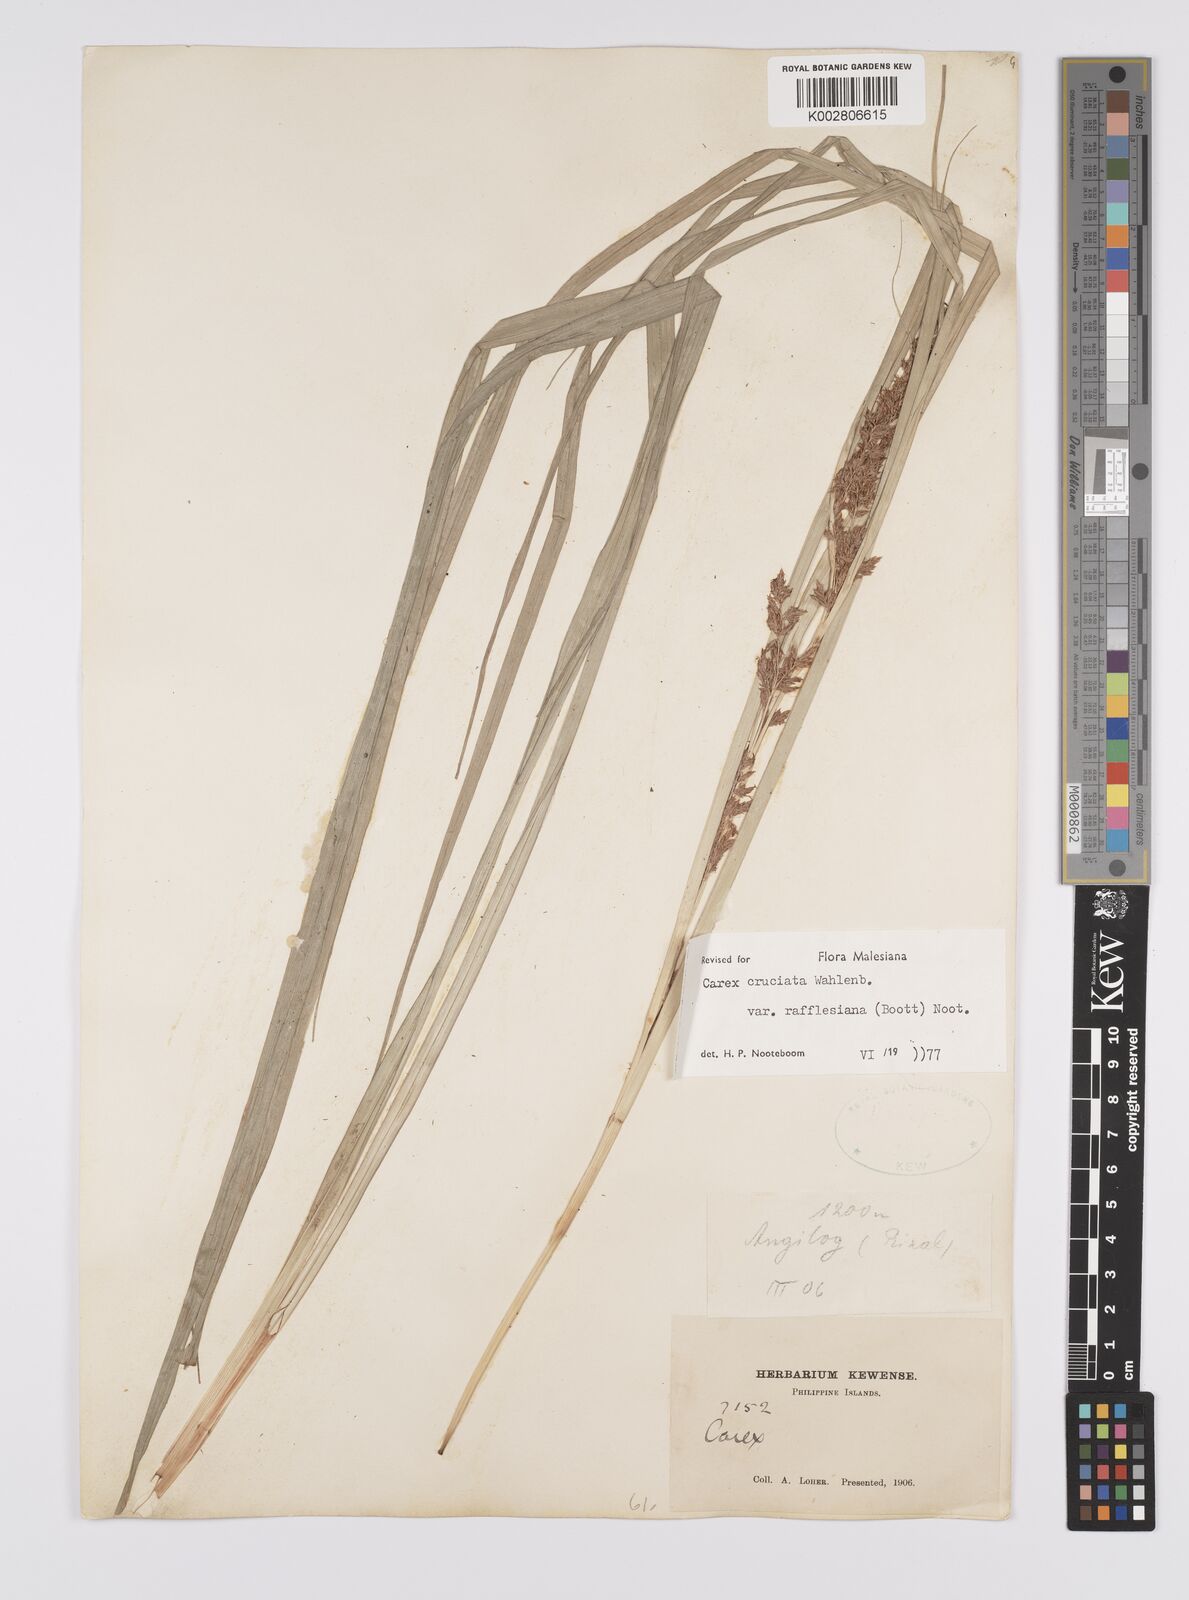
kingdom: Plantae
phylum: Tracheophyta
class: Liliopsida
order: Poales
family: Cyperaceae
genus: Carex
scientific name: Carex rafflesiana
